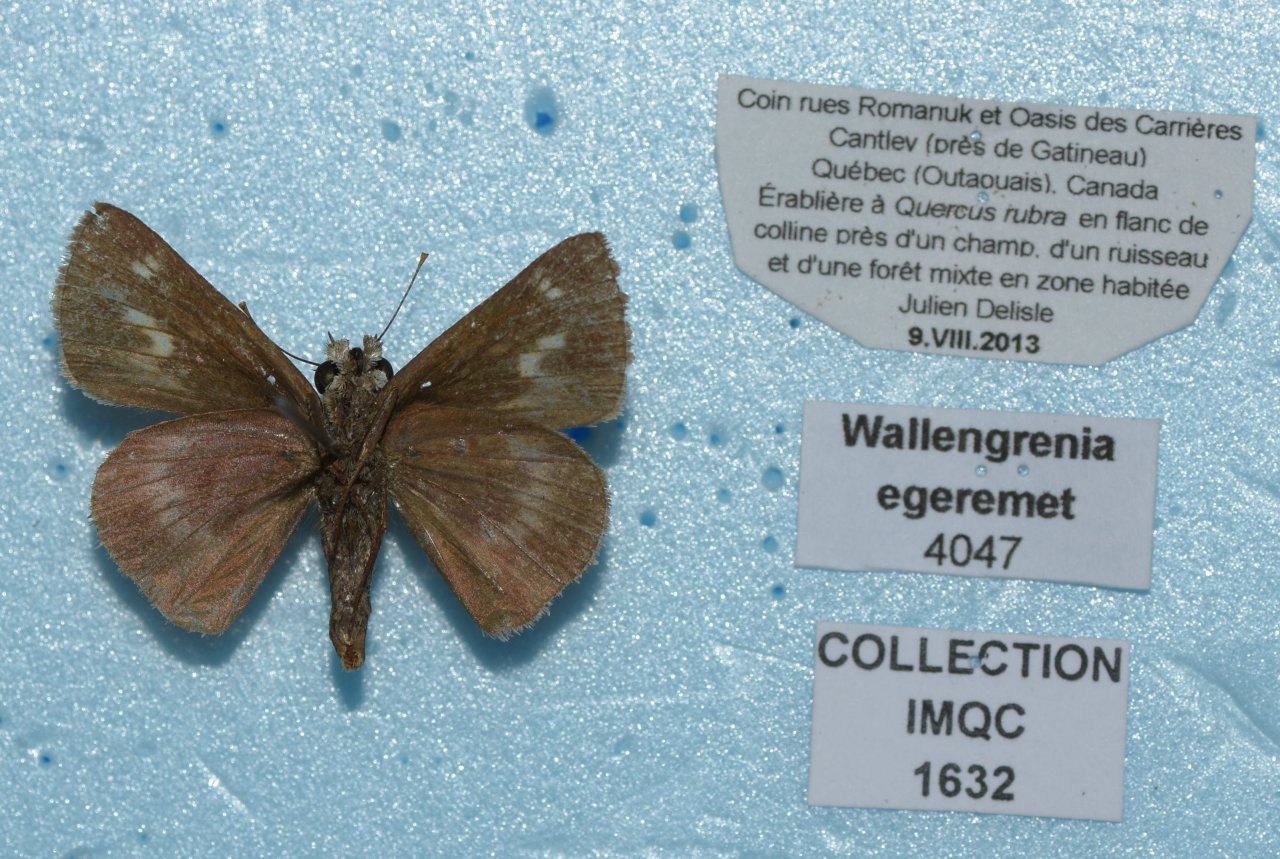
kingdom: Animalia
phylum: Arthropoda
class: Insecta
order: Lepidoptera
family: Hesperiidae
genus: Polites
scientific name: Polites egeremet
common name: Northern Broken-Dash
